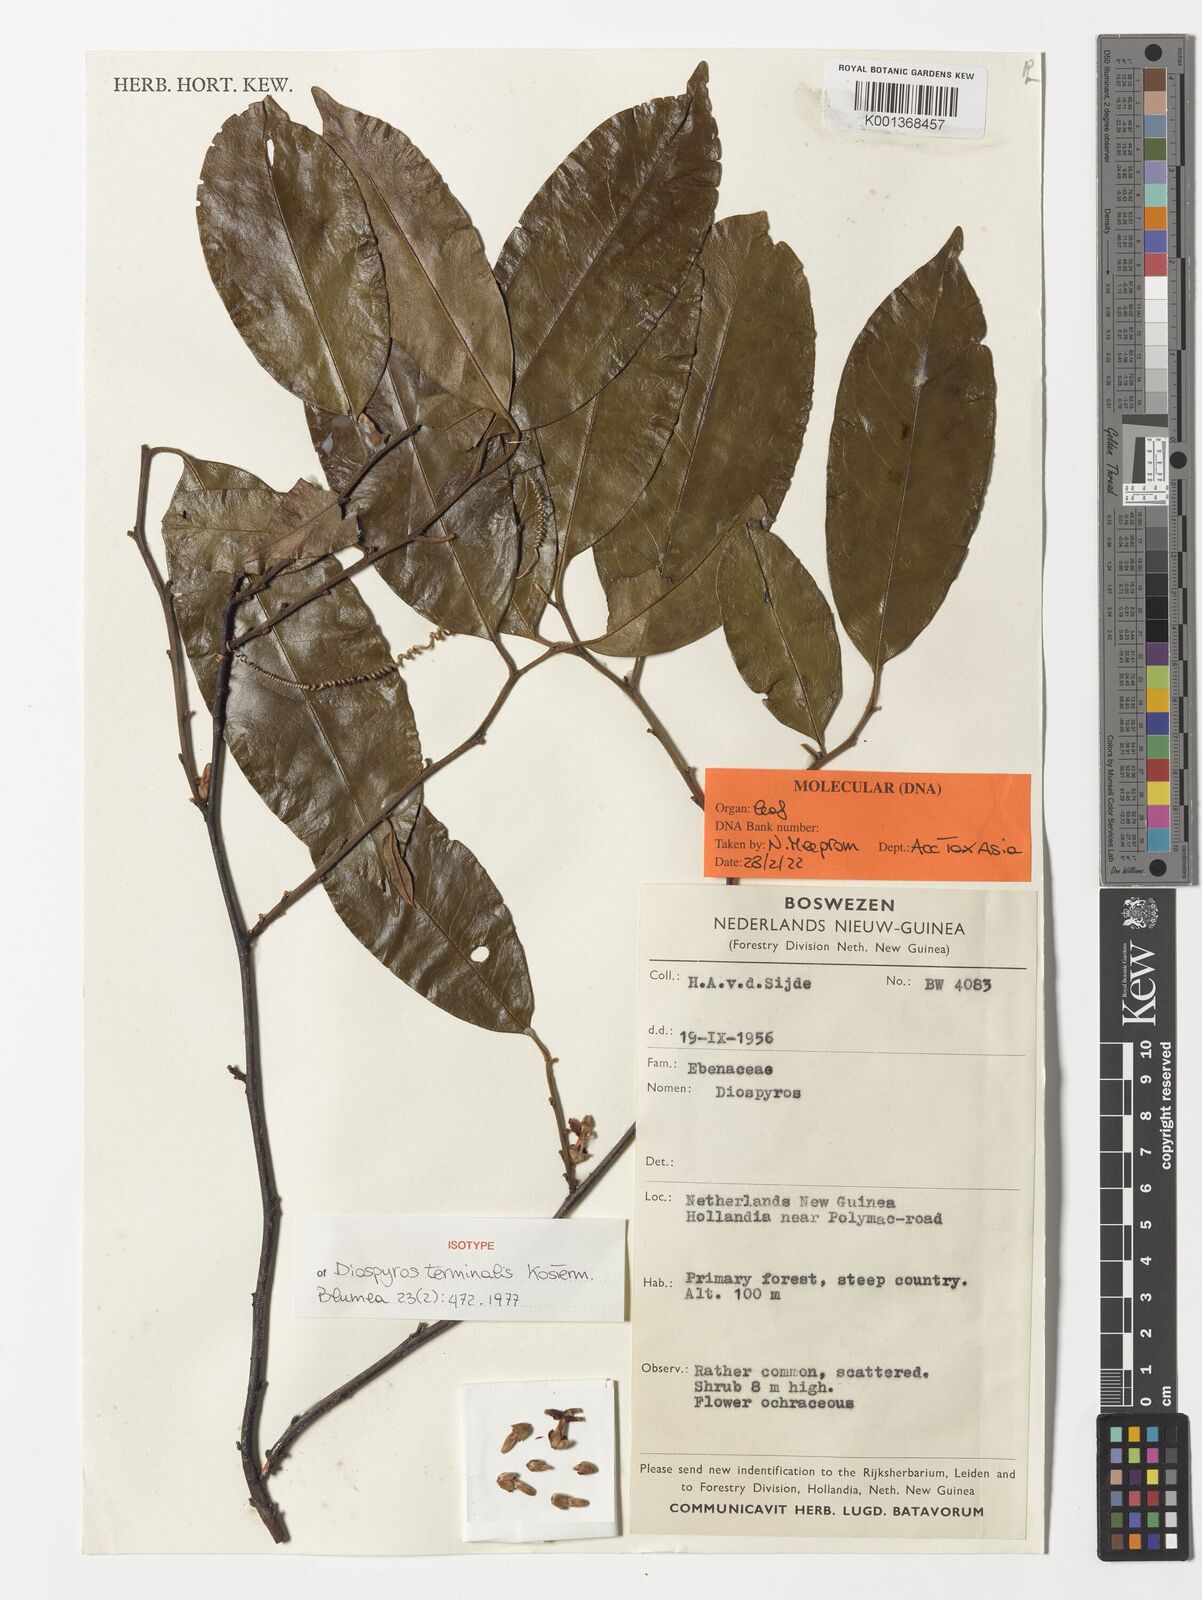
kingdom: Plantae
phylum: Tracheophyta
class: Magnoliopsida
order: Ericales
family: Ebenaceae
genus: Diospyros
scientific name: Diospyros terminalis
